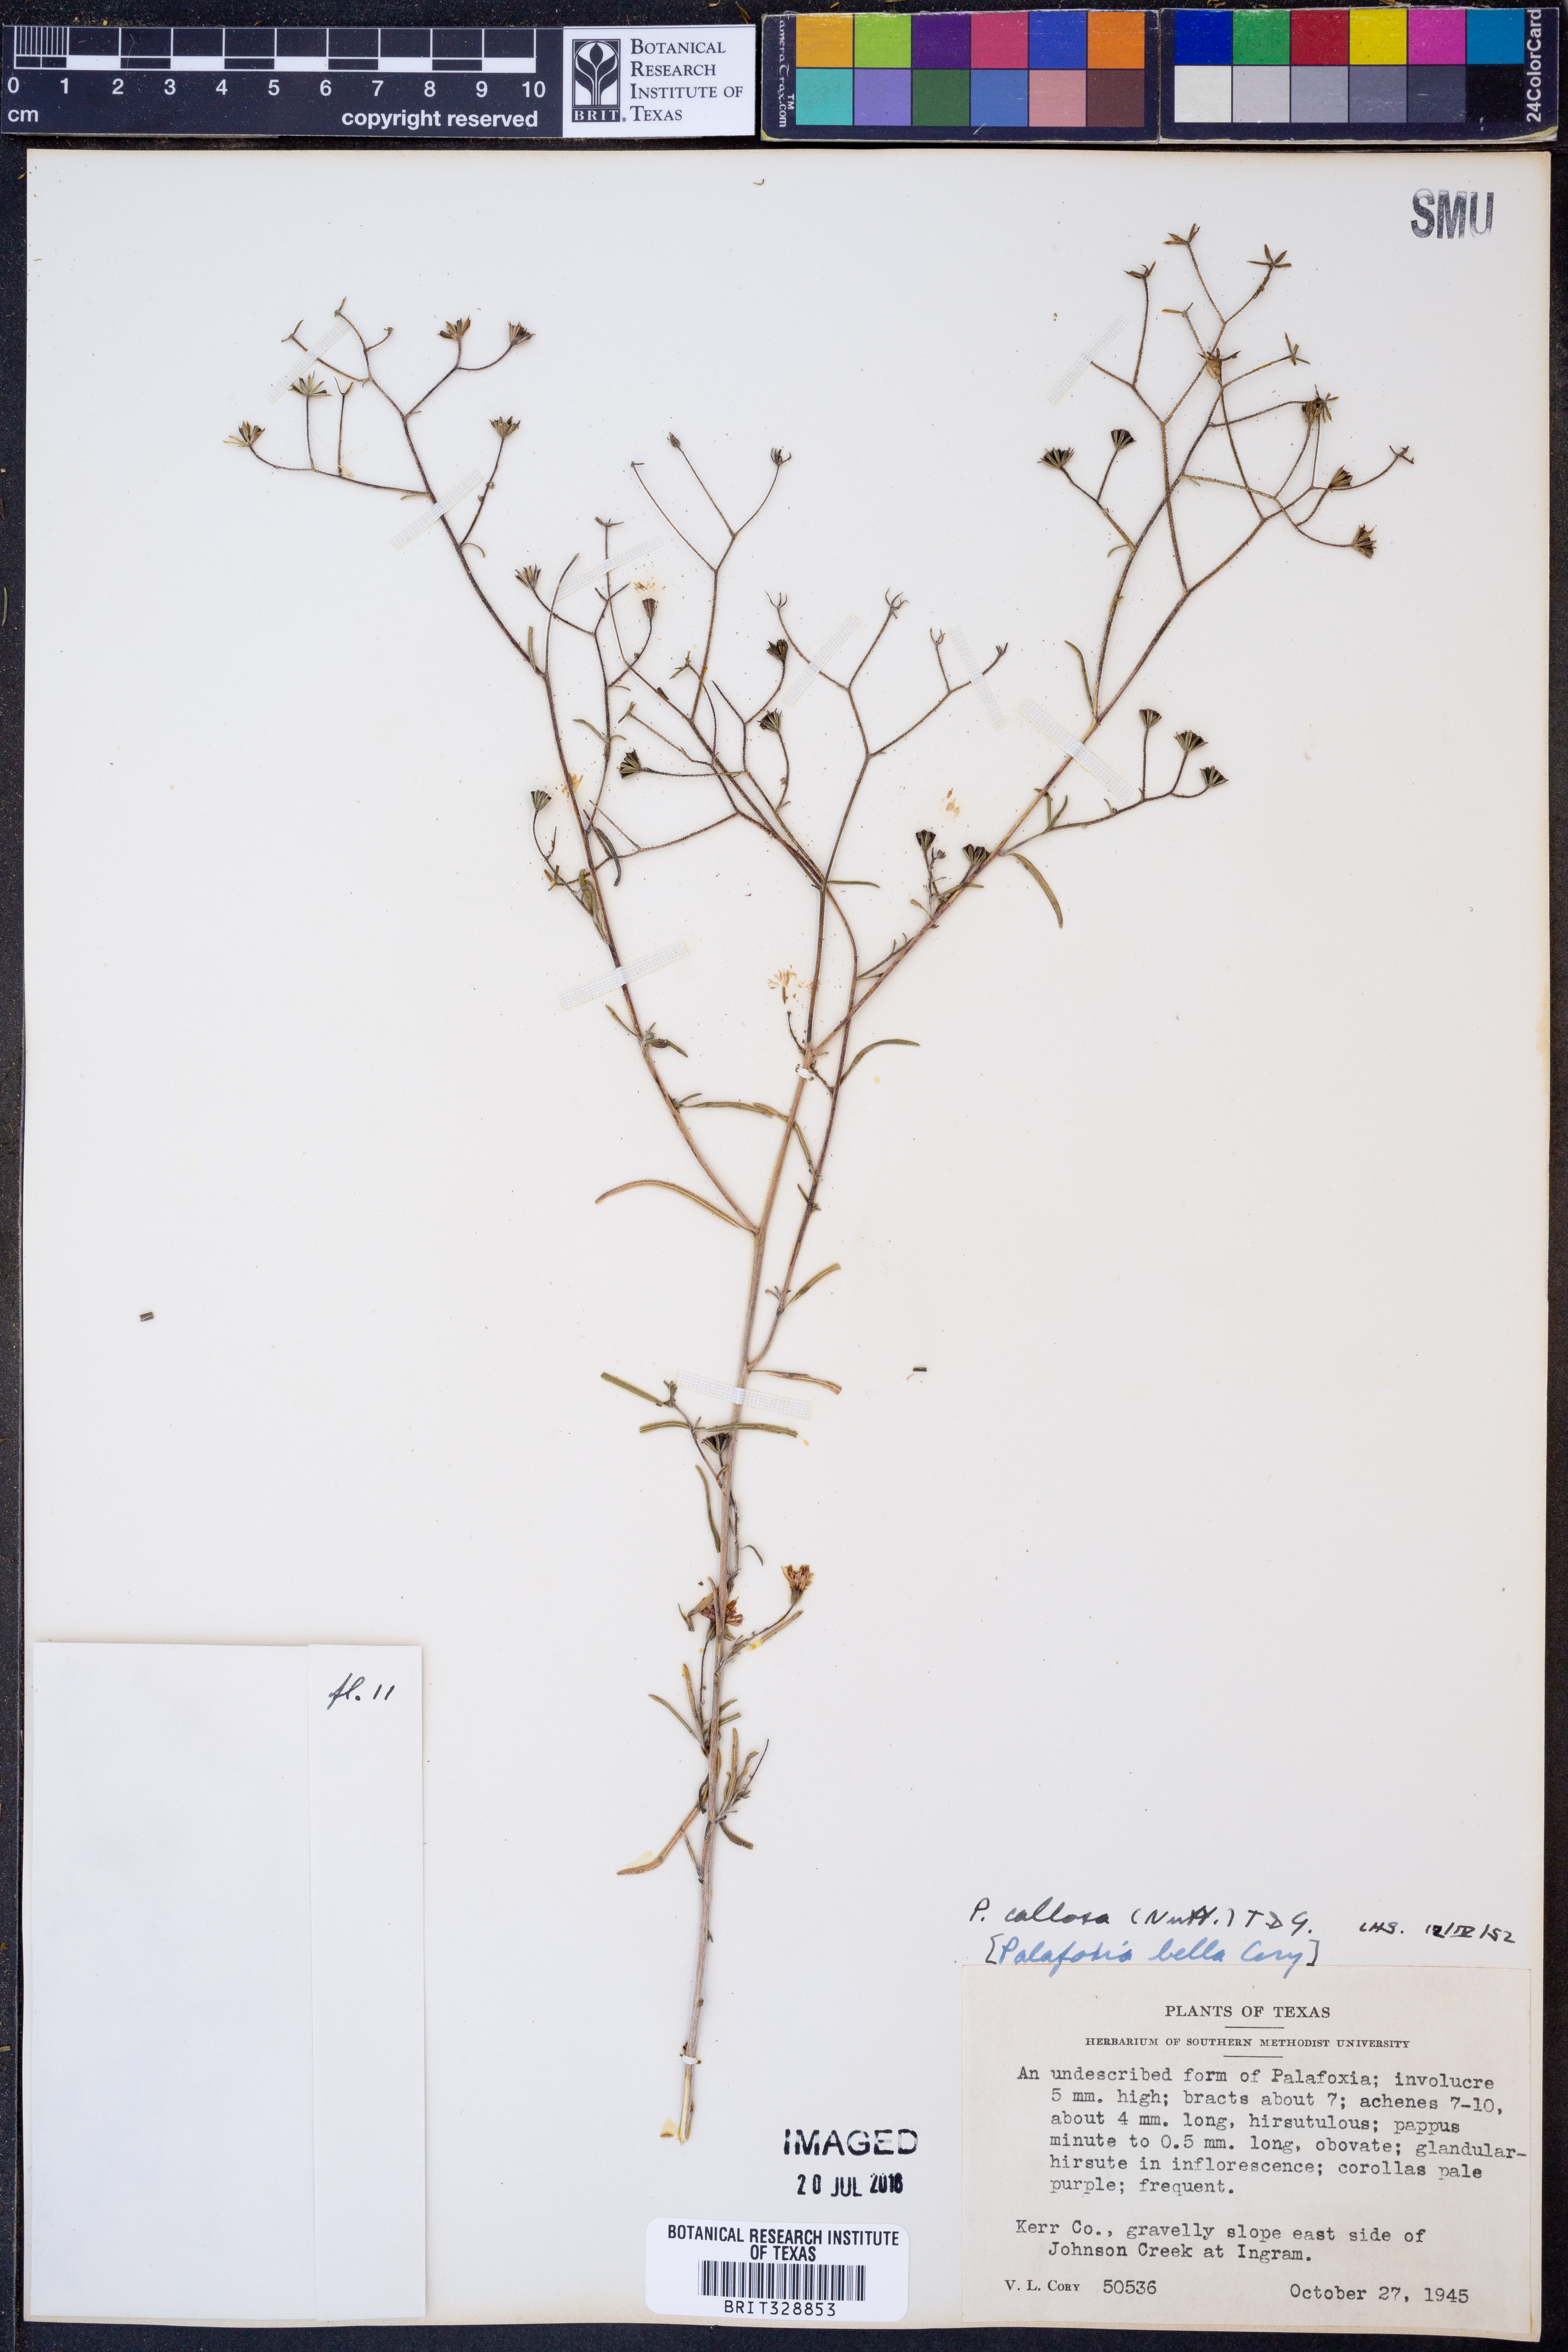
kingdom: Plantae
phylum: Tracheophyta
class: Magnoliopsida
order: Asterales
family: Asteraceae
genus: Palafoxia
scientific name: Palafoxia callosa
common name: Small palafox
